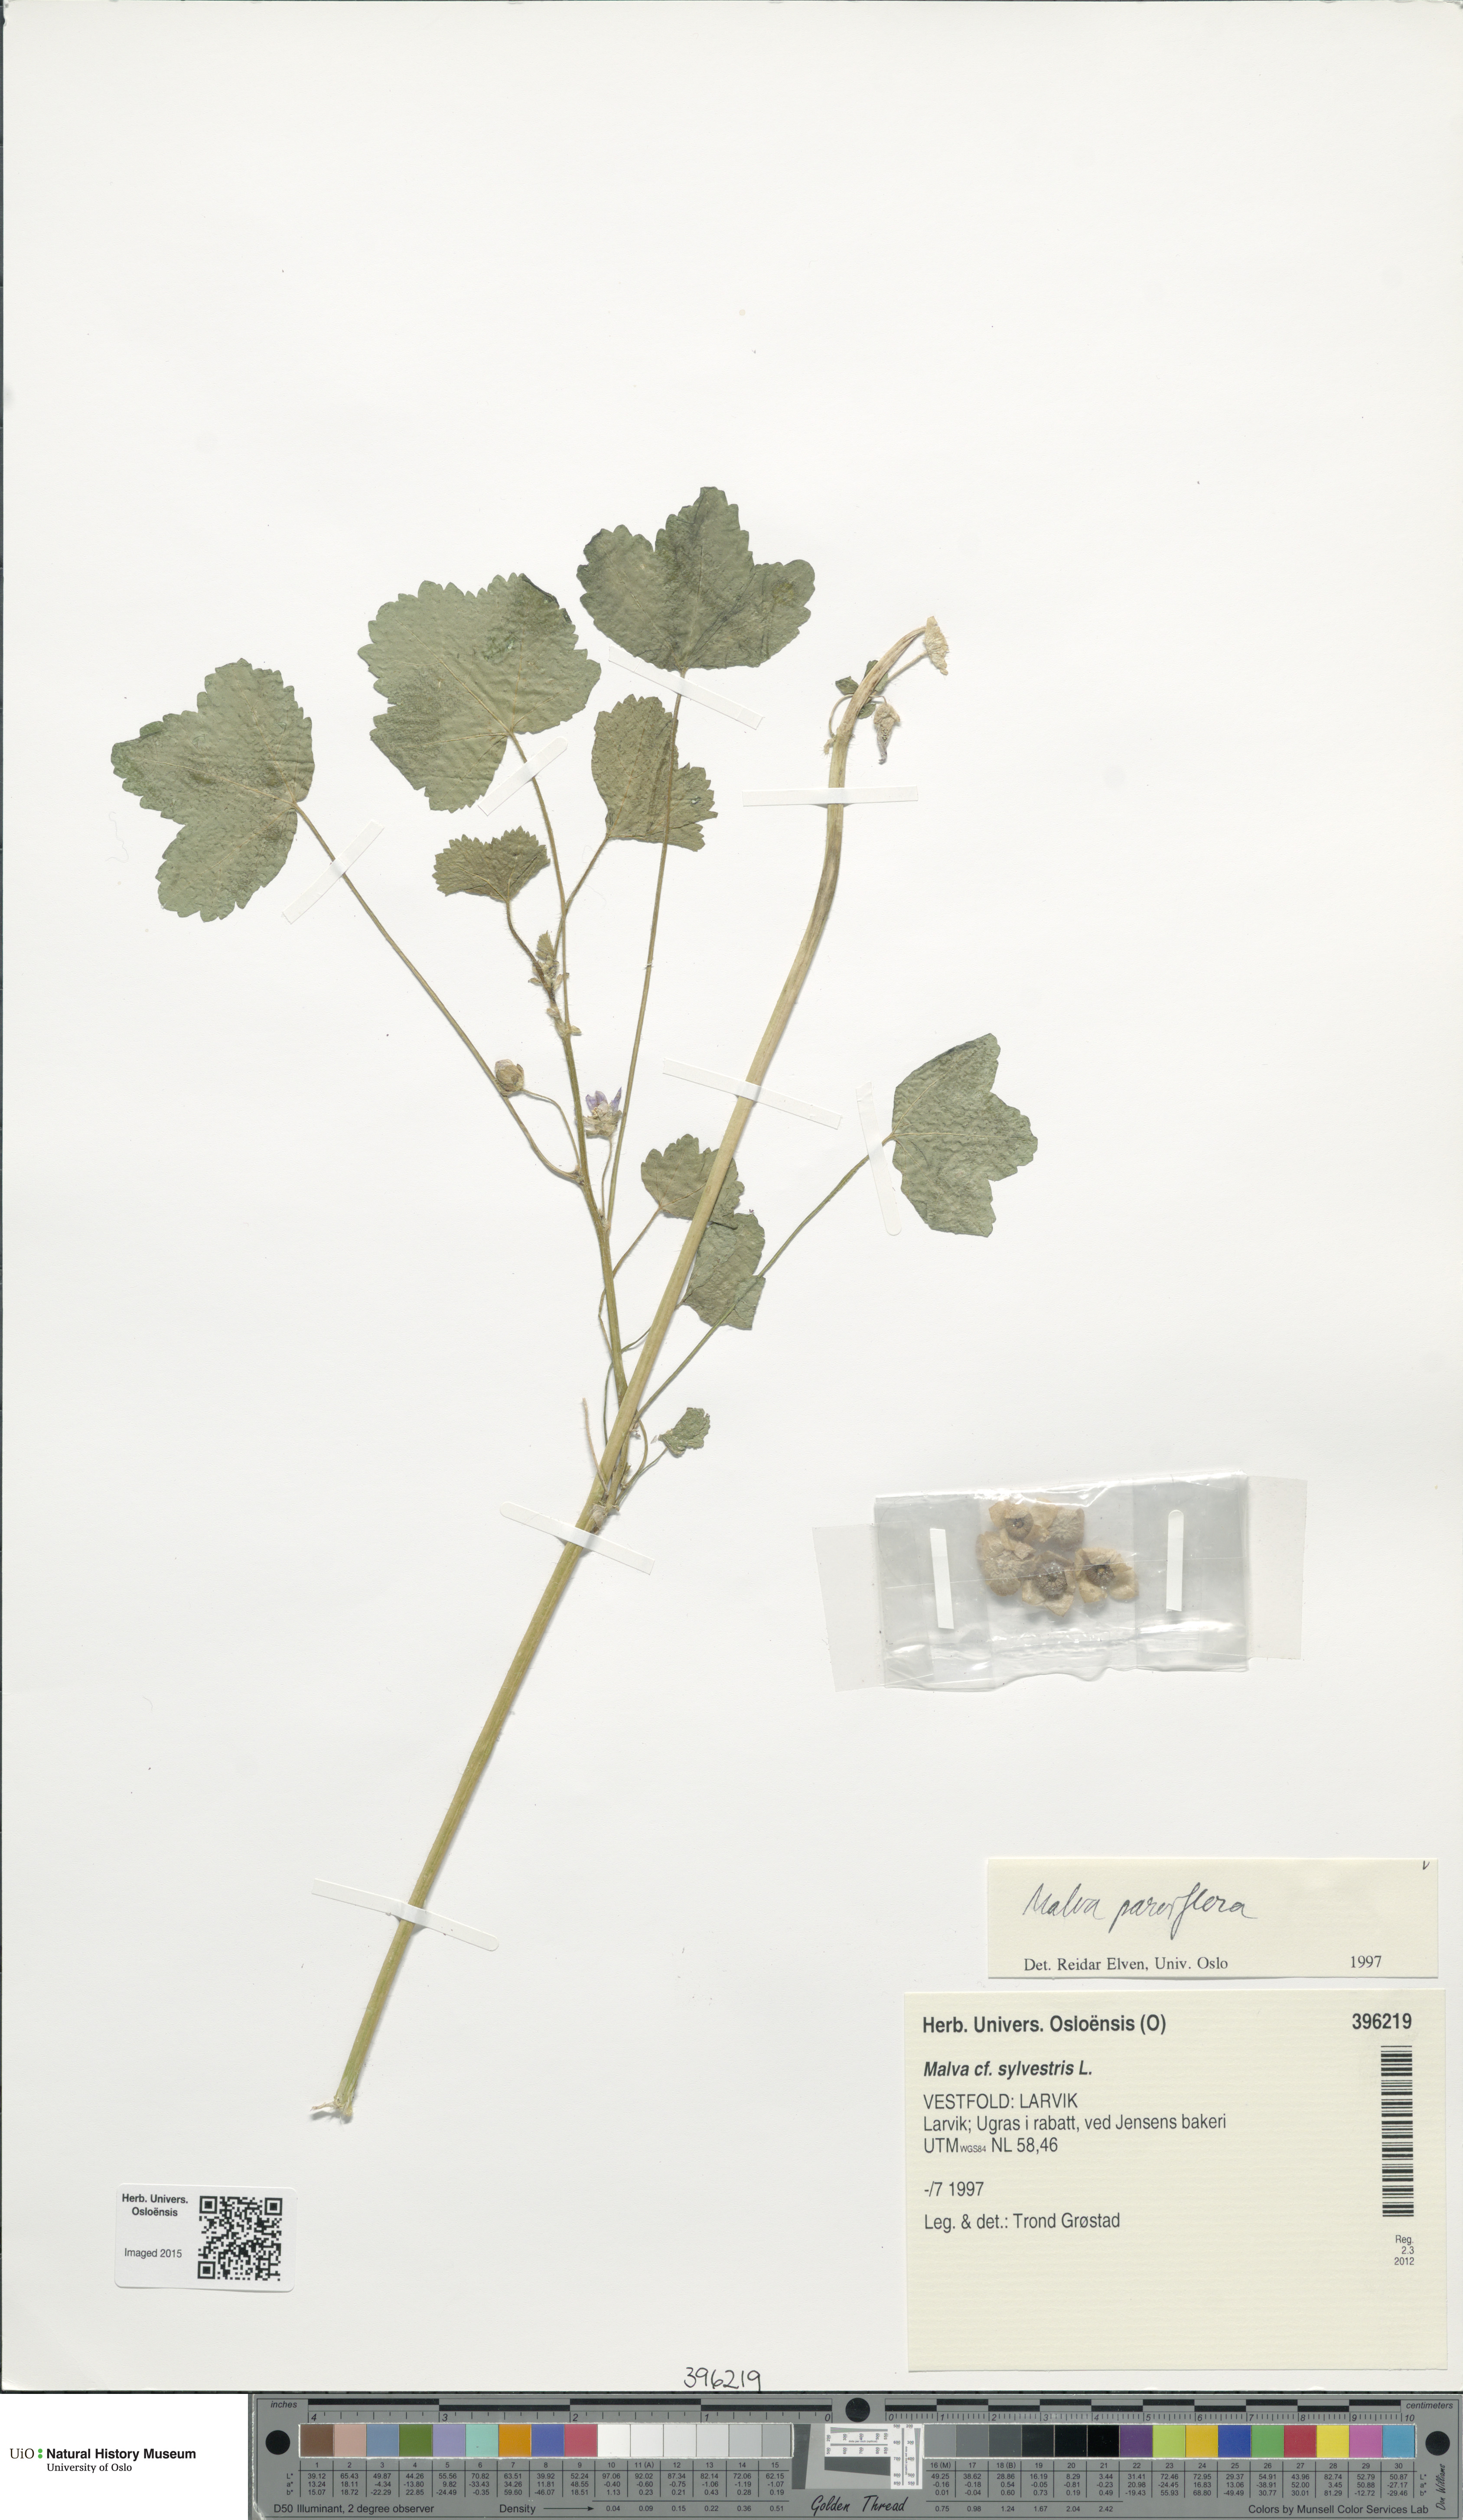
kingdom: Plantae
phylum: Tracheophyta
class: Magnoliopsida
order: Malvales
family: Malvaceae
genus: Malva
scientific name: Malva parviflora
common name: Least mallow
